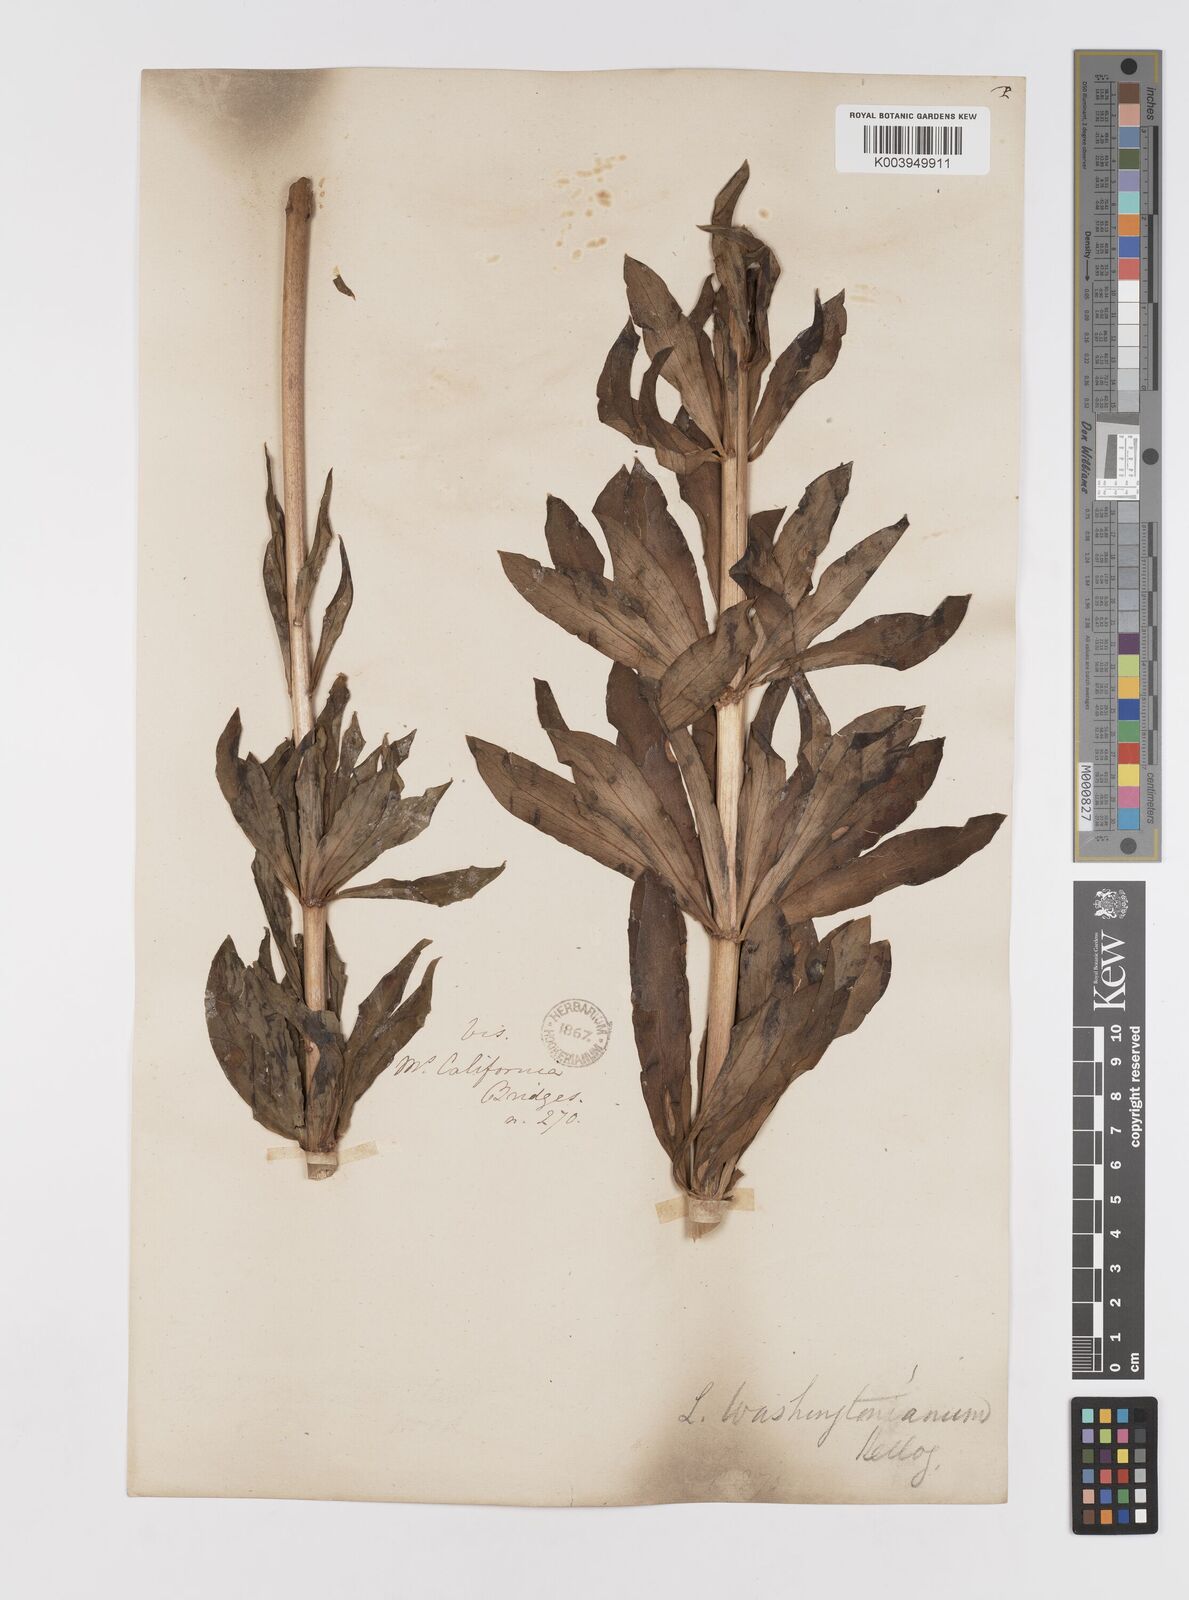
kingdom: Plantae
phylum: Tracheophyta
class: Liliopsida
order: Liliales
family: Liliaceae
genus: Lilium
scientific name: Lilium washingtonianum
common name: Washington lily
